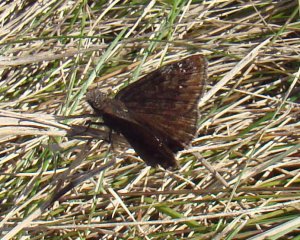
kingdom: Animalia
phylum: Arthropoda
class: Insecta
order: Lepidoptera
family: Hesperiidae
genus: Gesta
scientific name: Gesta
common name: Wild Indigo Duskywing
